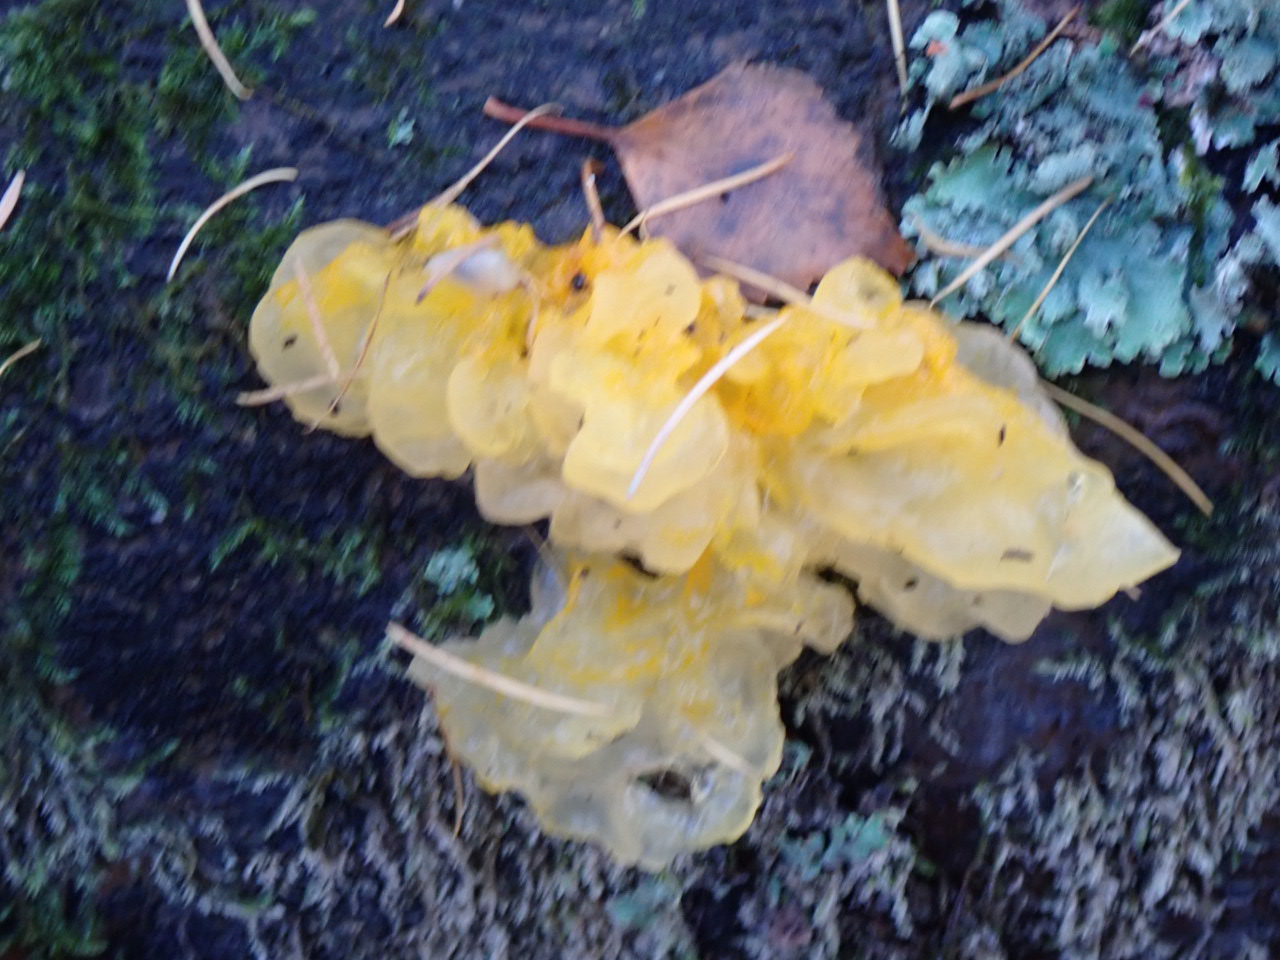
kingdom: Fungi
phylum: Basidiomycota
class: Tremellomycetes
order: Tremellales
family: Tremellaceae
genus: Tremella
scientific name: Tremella mesenterica
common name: gul bævresvamp
